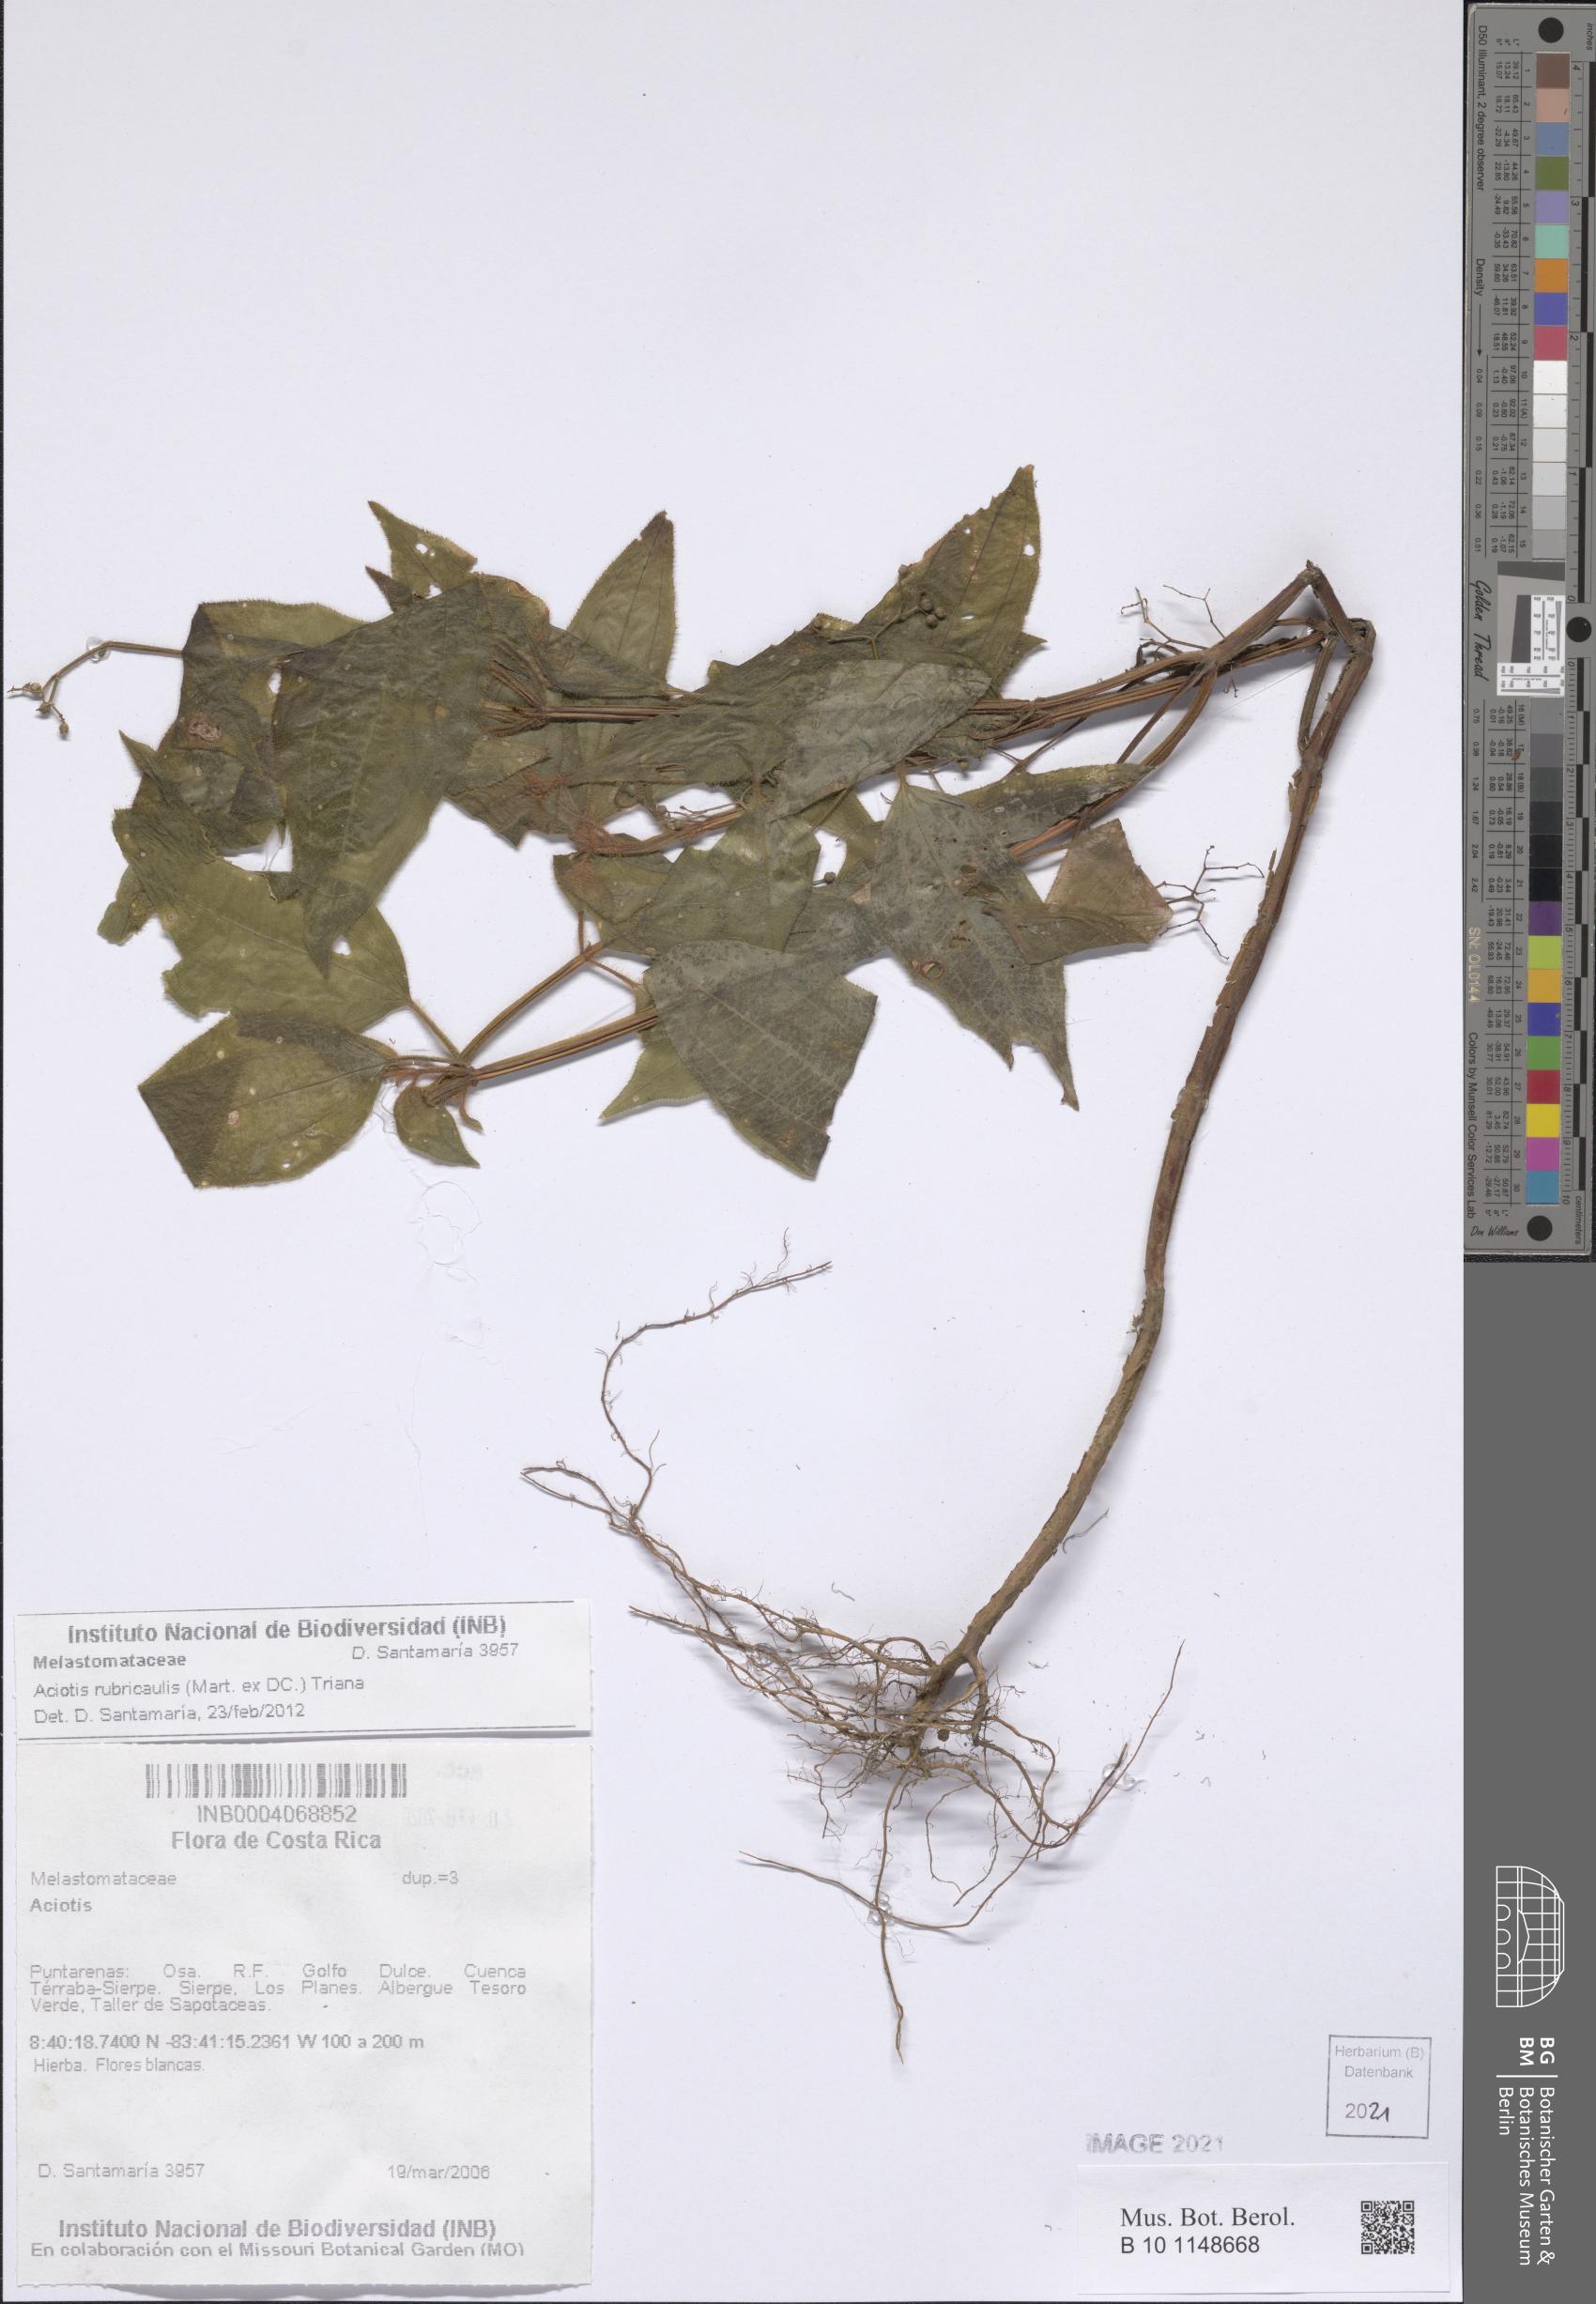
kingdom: Plantae
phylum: Tracheophyta
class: Magnoliopsida
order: Myrtales
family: Melastomataceae
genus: Aciotis
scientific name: Aciotis rubricaulis
